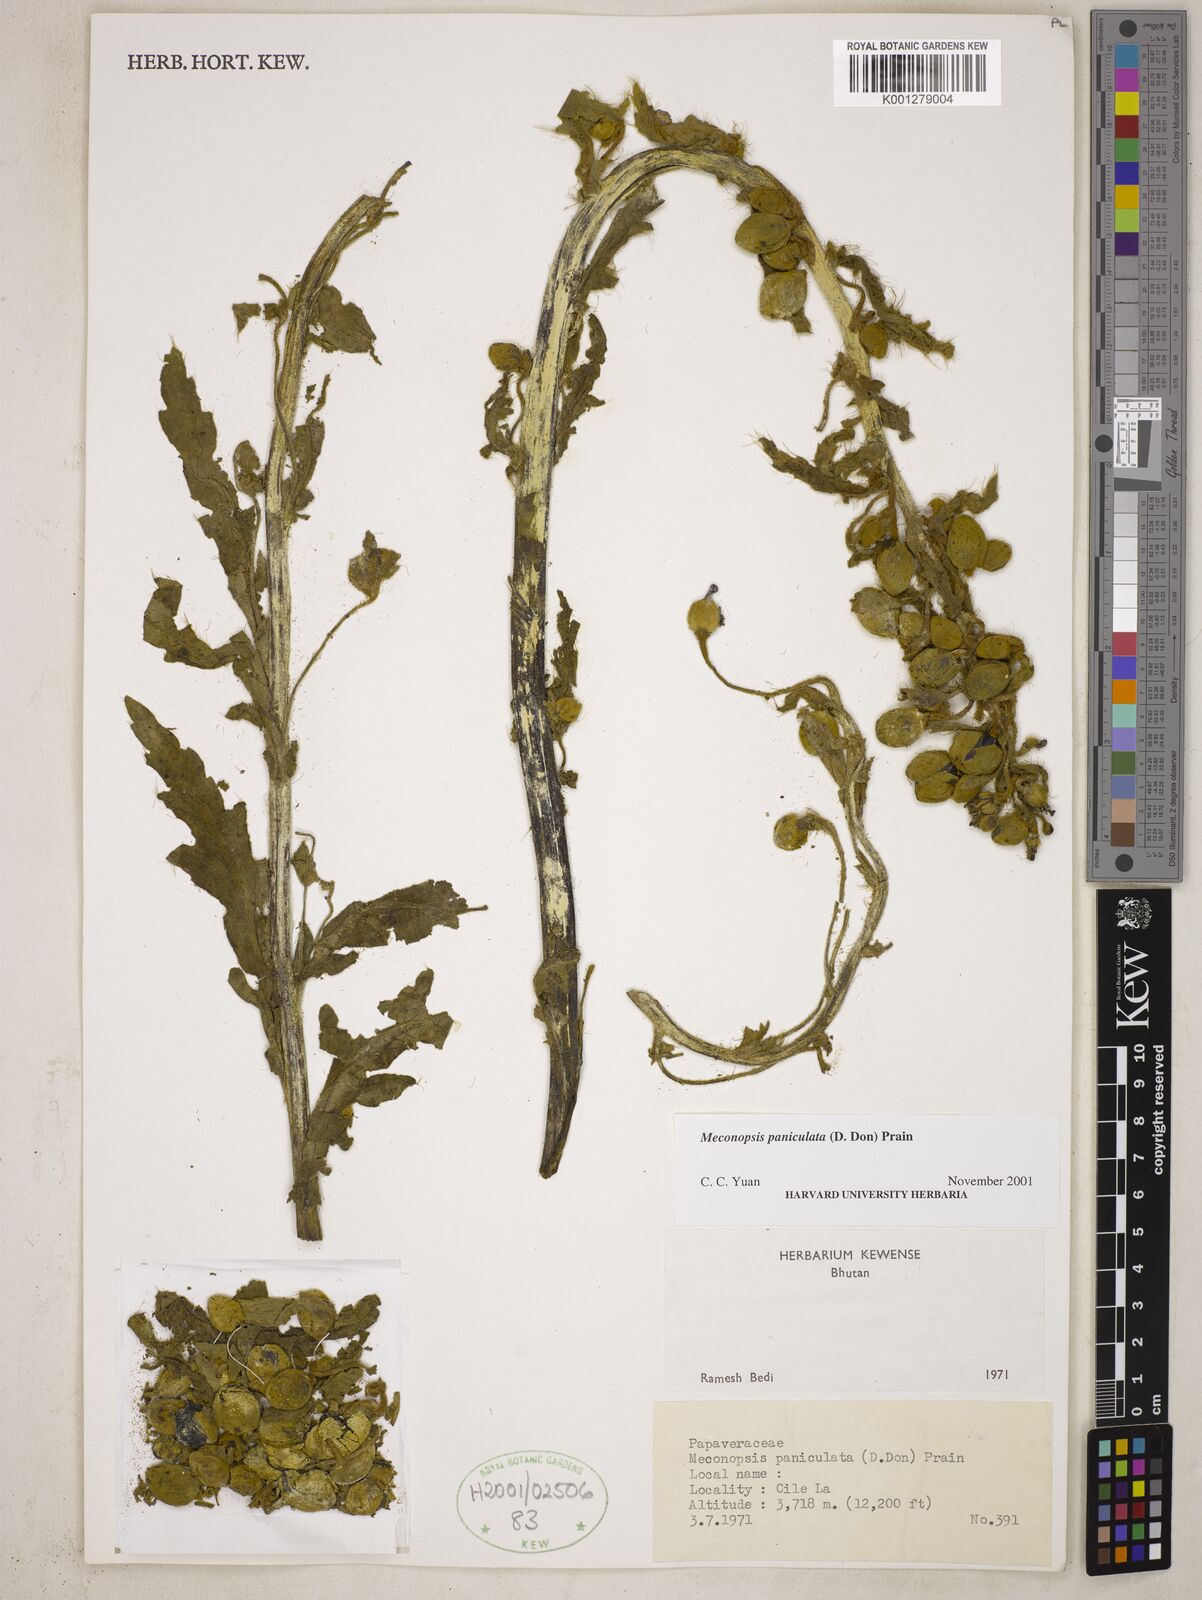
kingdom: Plantae
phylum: Tracheophyta
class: Magnoliopsida
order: Ranunculales
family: Papaveraceae
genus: Meconopsis
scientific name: Meconopsis paniculata
